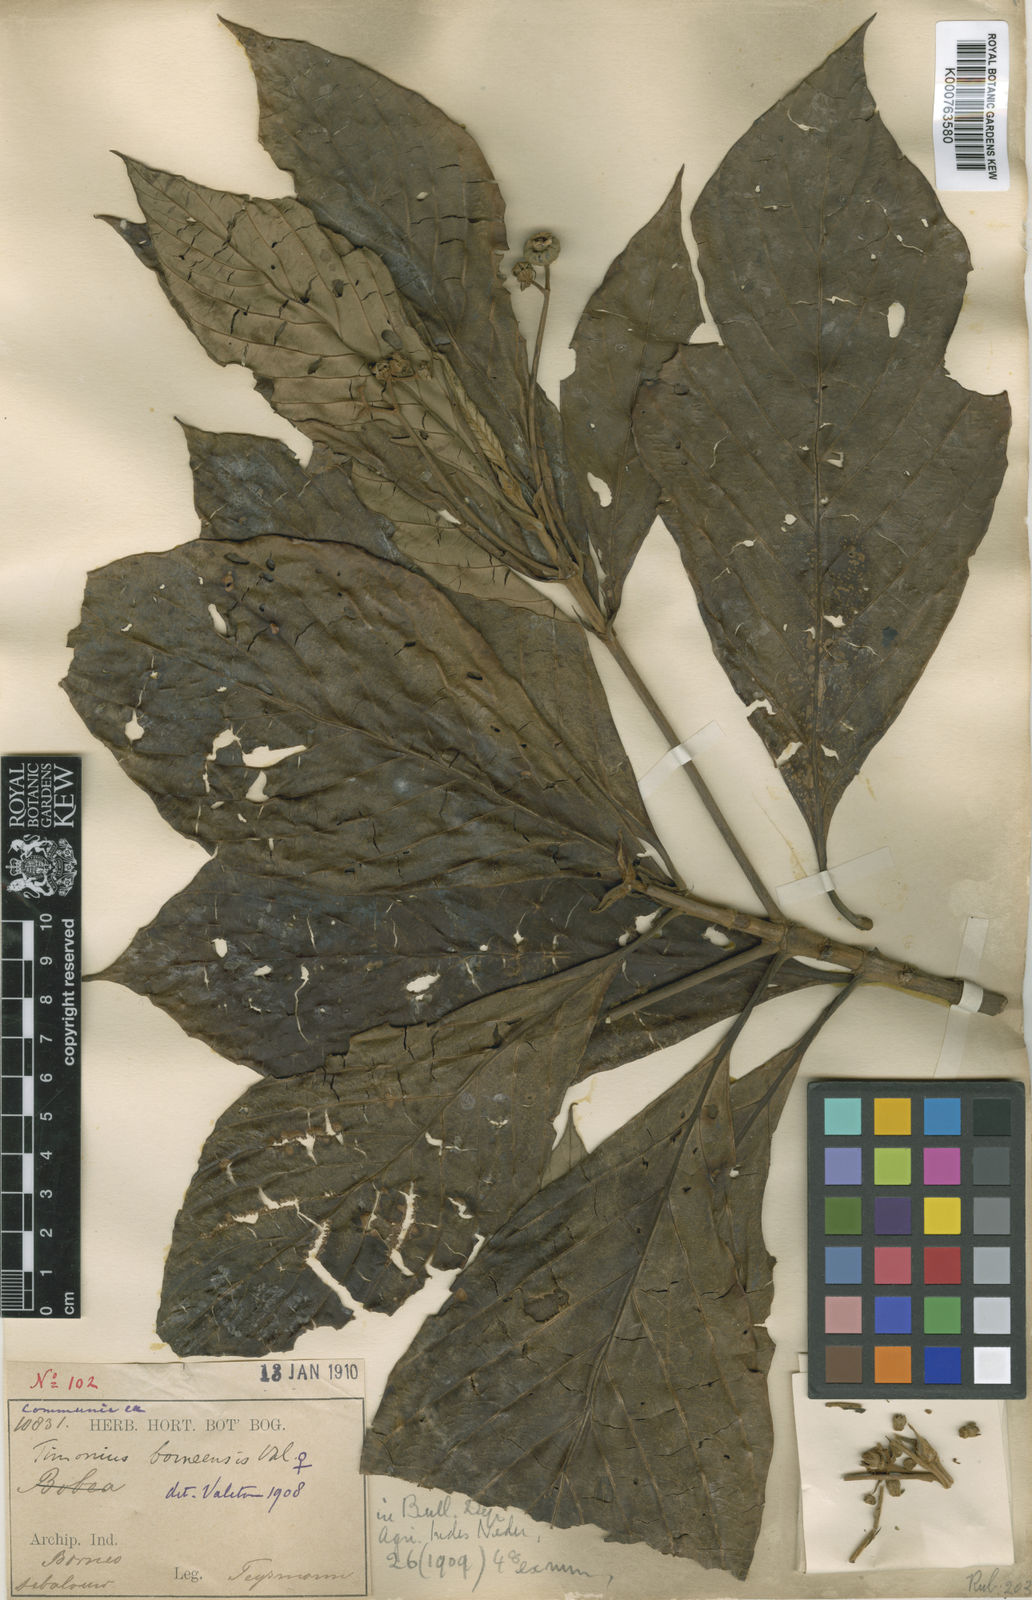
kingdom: Plantae
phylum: Tracheophyta
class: Magnoliopsida
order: Gentianales
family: Rubiaceae
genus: Timonius
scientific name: Timonius borneensis
